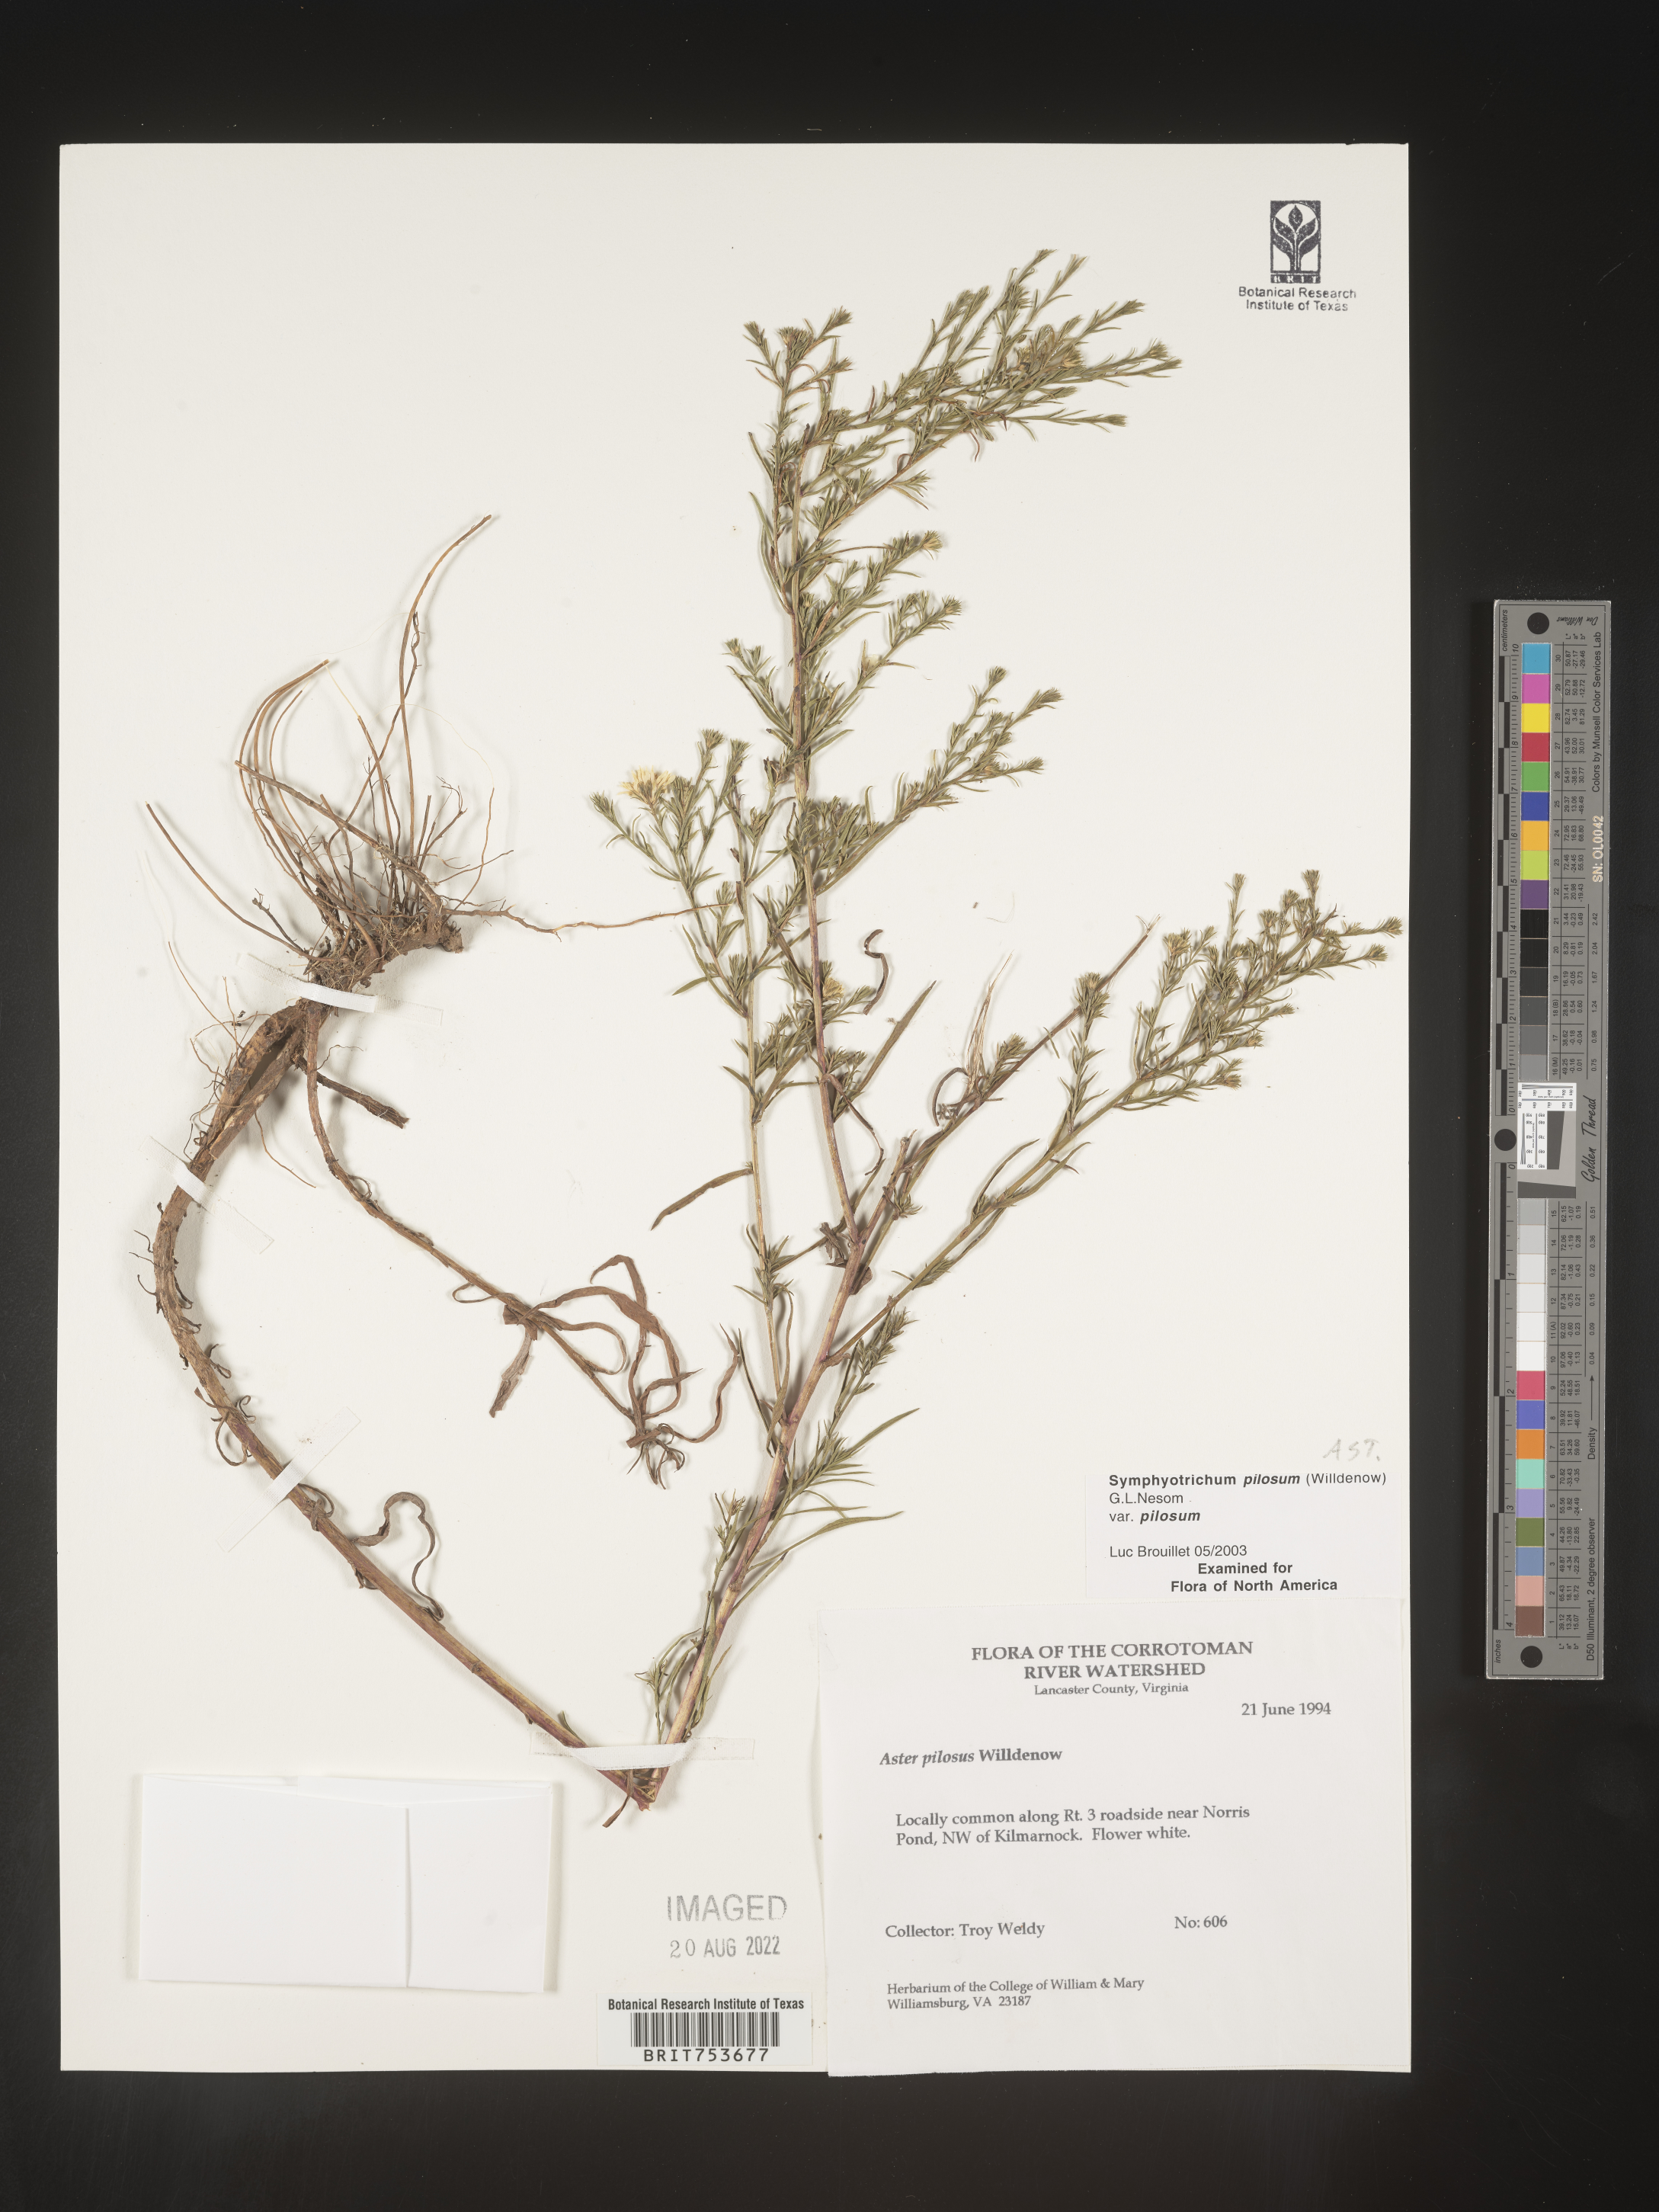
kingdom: Plantae
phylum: Tracheophyta
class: Magnoliopsida
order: Asterales
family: Asteraceae
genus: Symphyotrichum
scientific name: Symphyotrichum pilosum
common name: Awl aster
